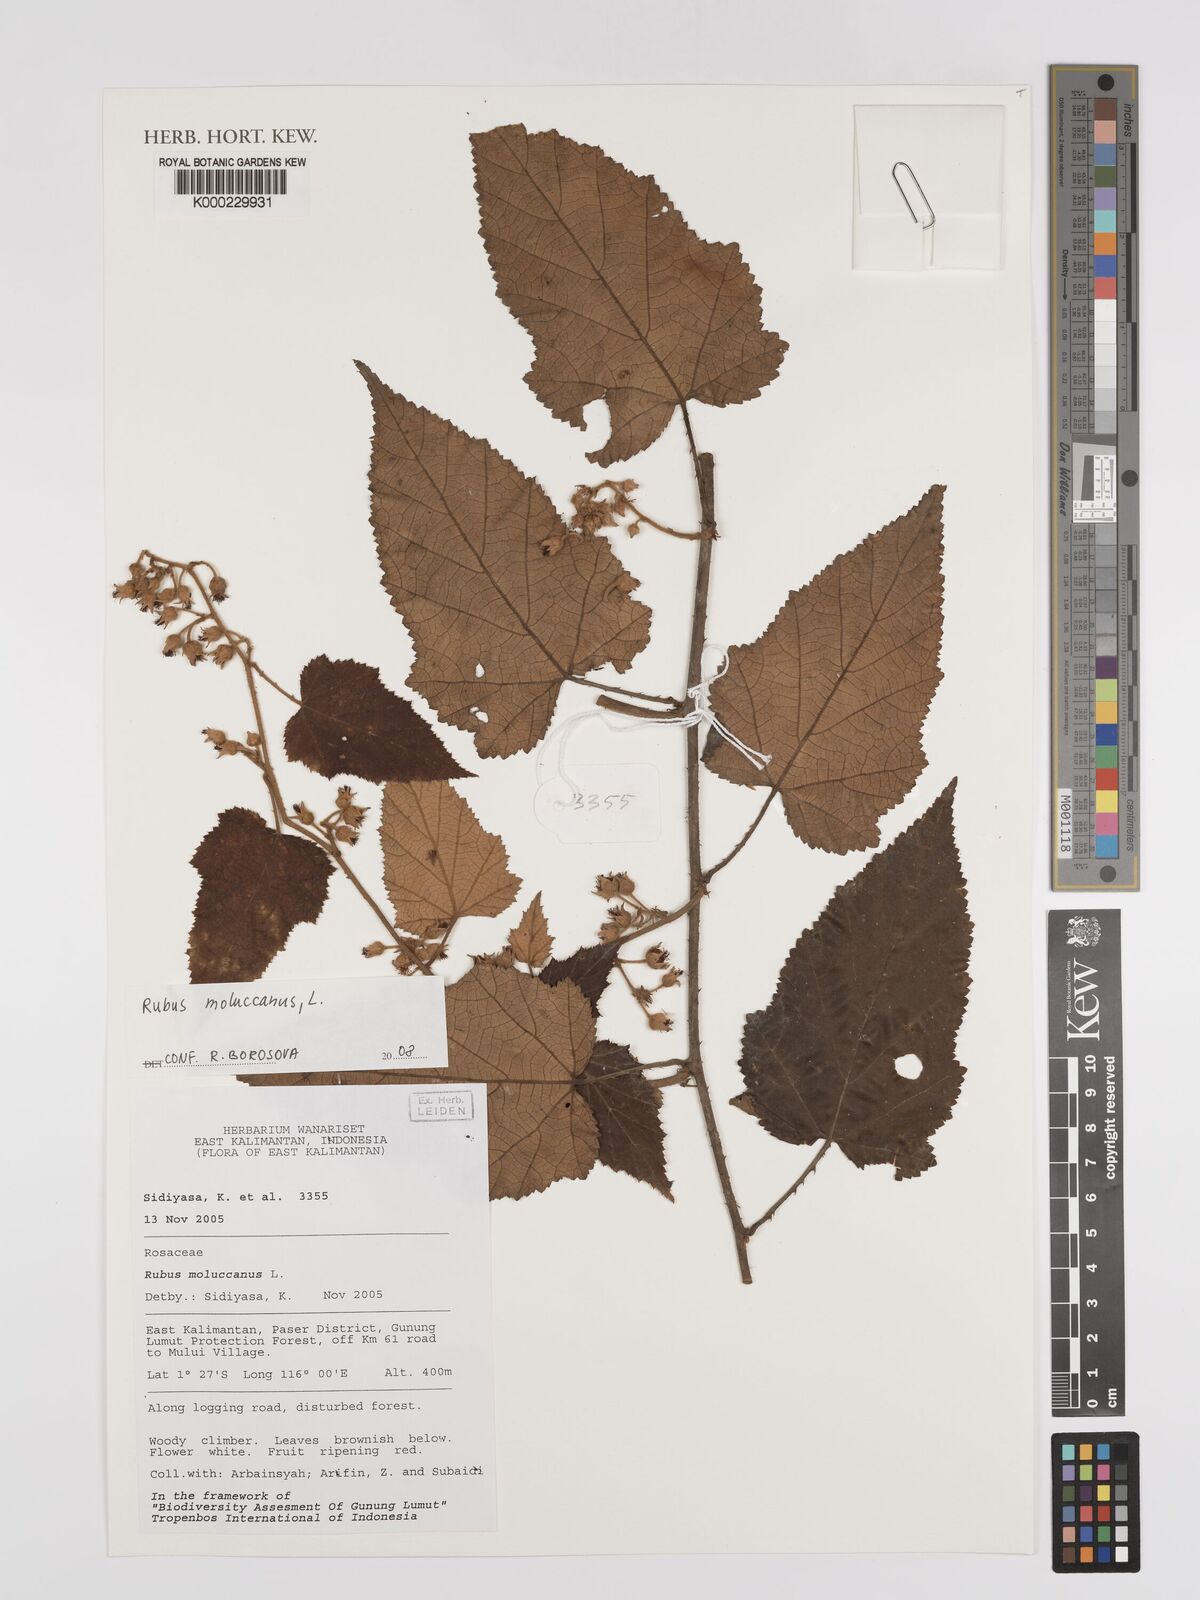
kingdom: Plantae
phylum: Tracheophyta
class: Magnoliopsida
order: Rosales
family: Rosaceae
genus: Rubus
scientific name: Rubus moluccanus
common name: Wild raspberry
